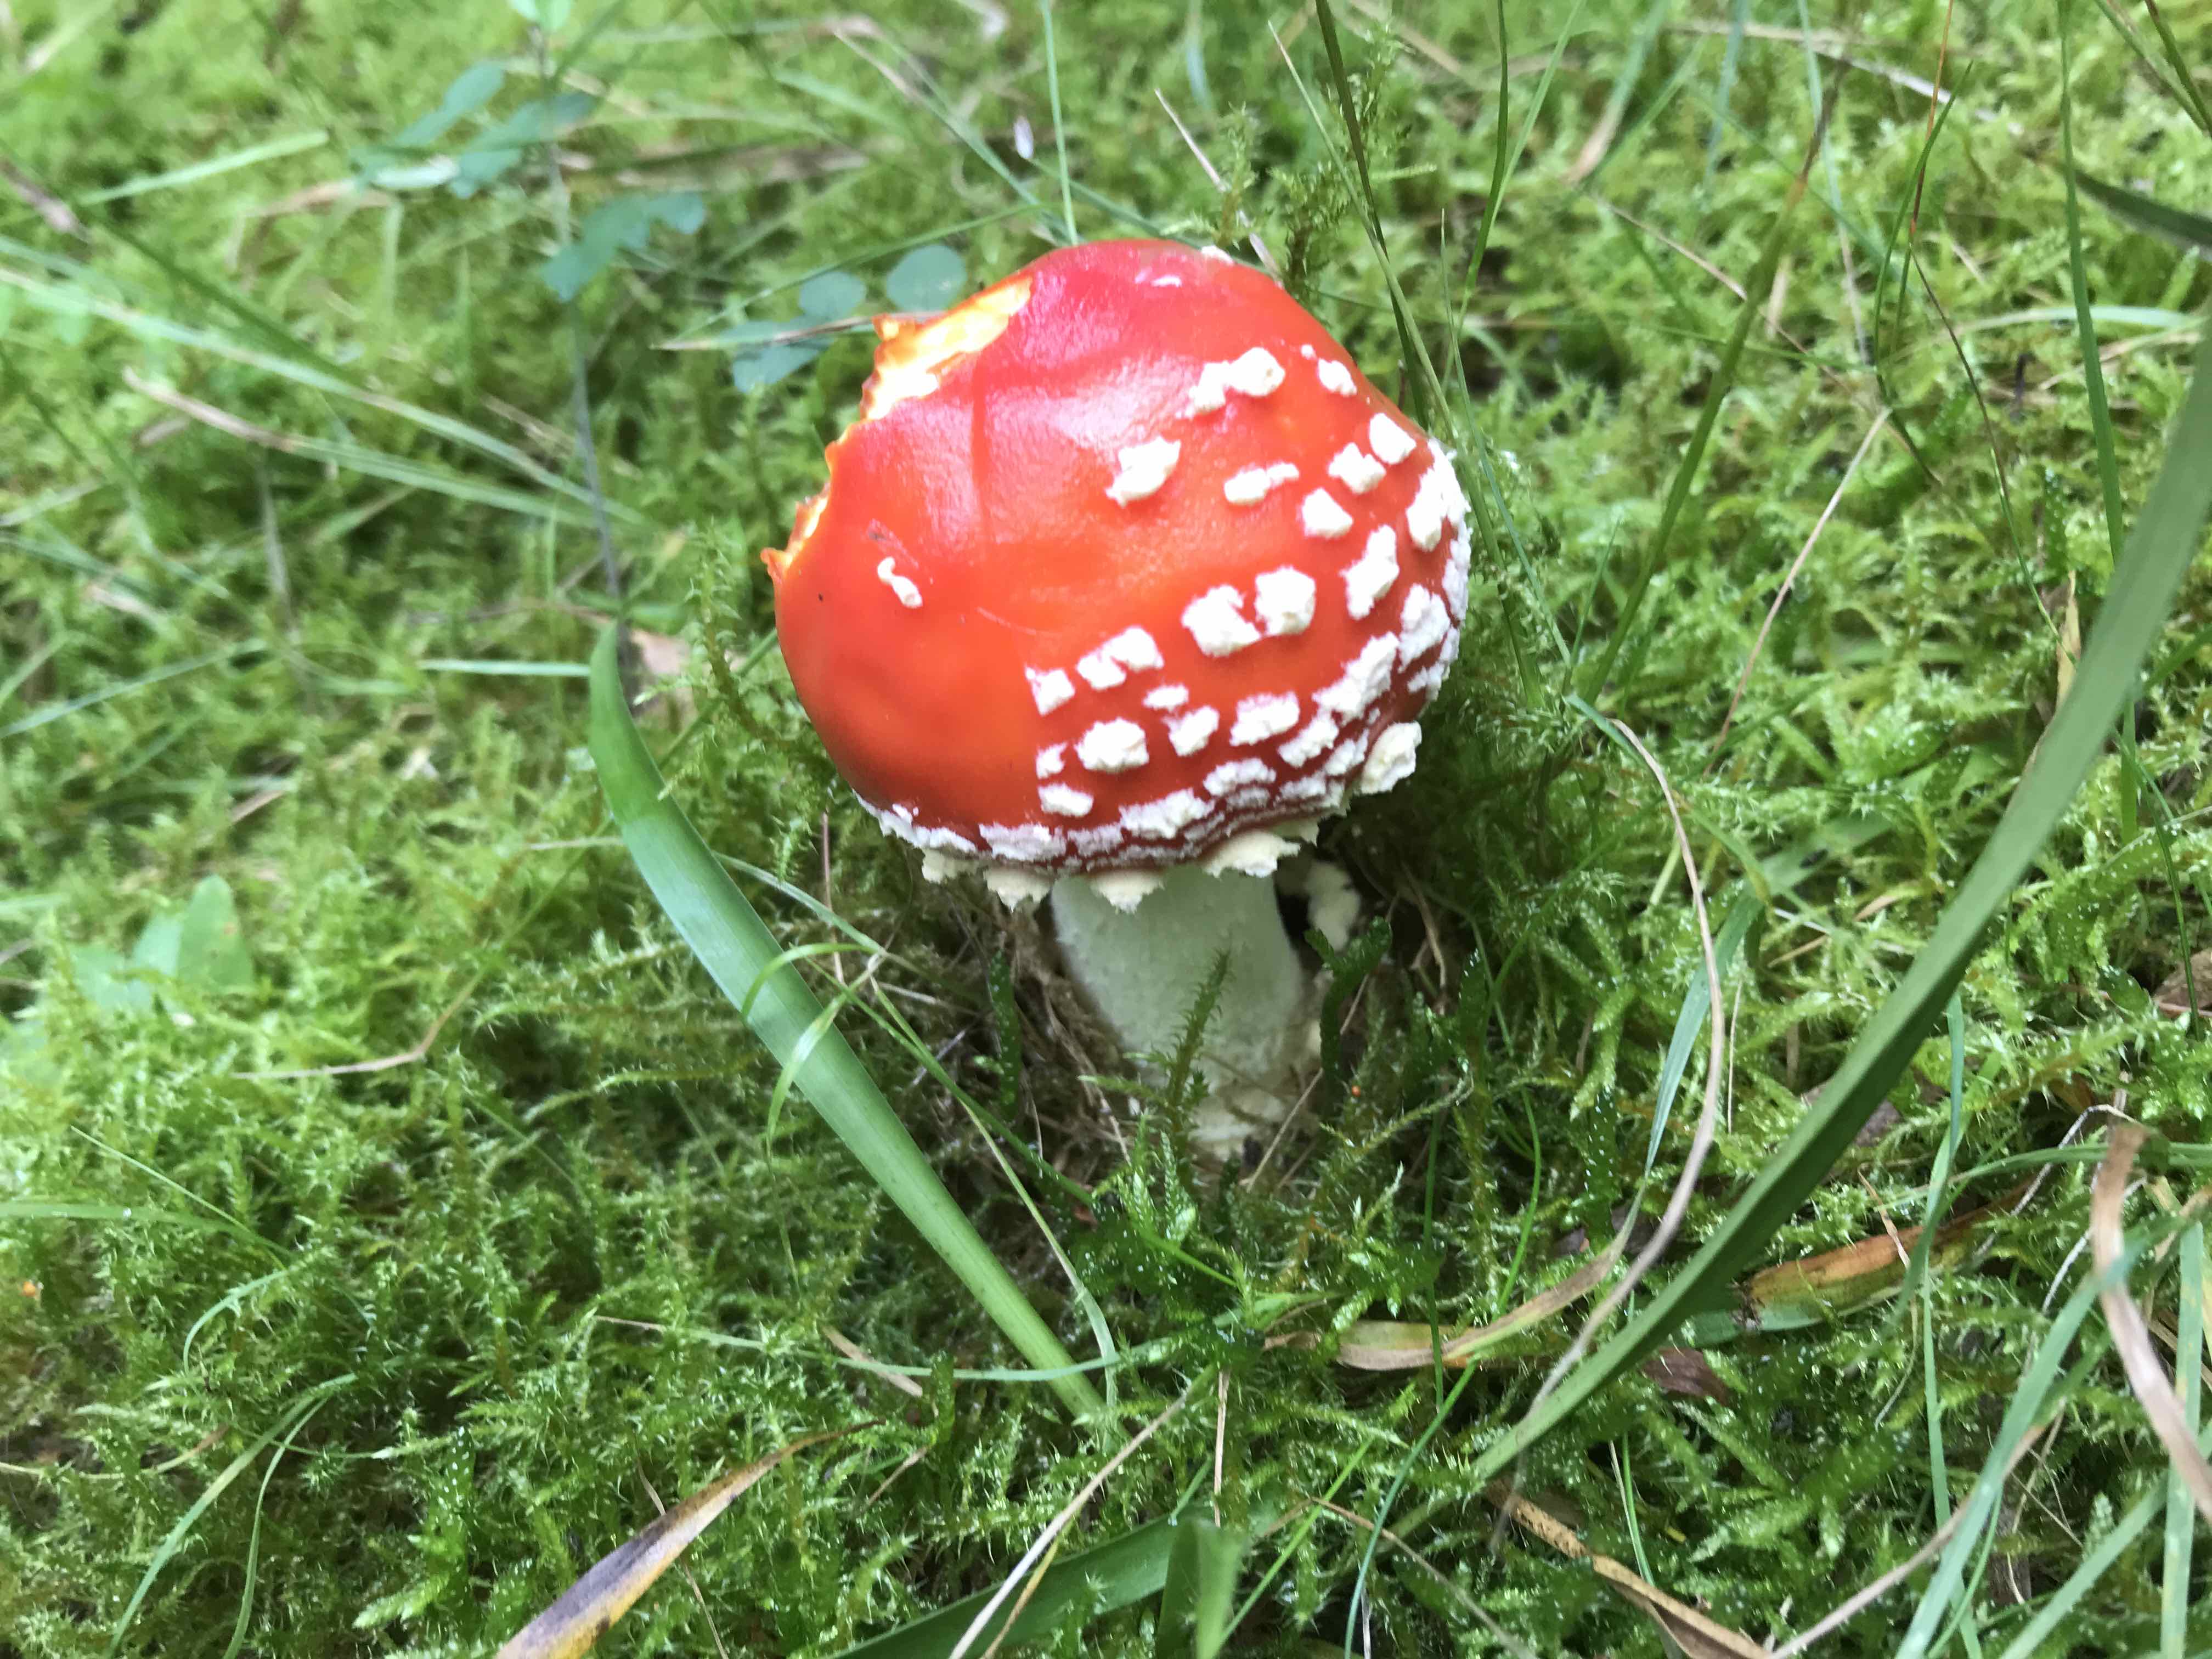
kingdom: Fungi
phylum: Basidiomycota
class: Agaricomycetes
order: Agaricales
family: Amanitaceae
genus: Amanita
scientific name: Amanita muscaria
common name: rød fluesvamp
